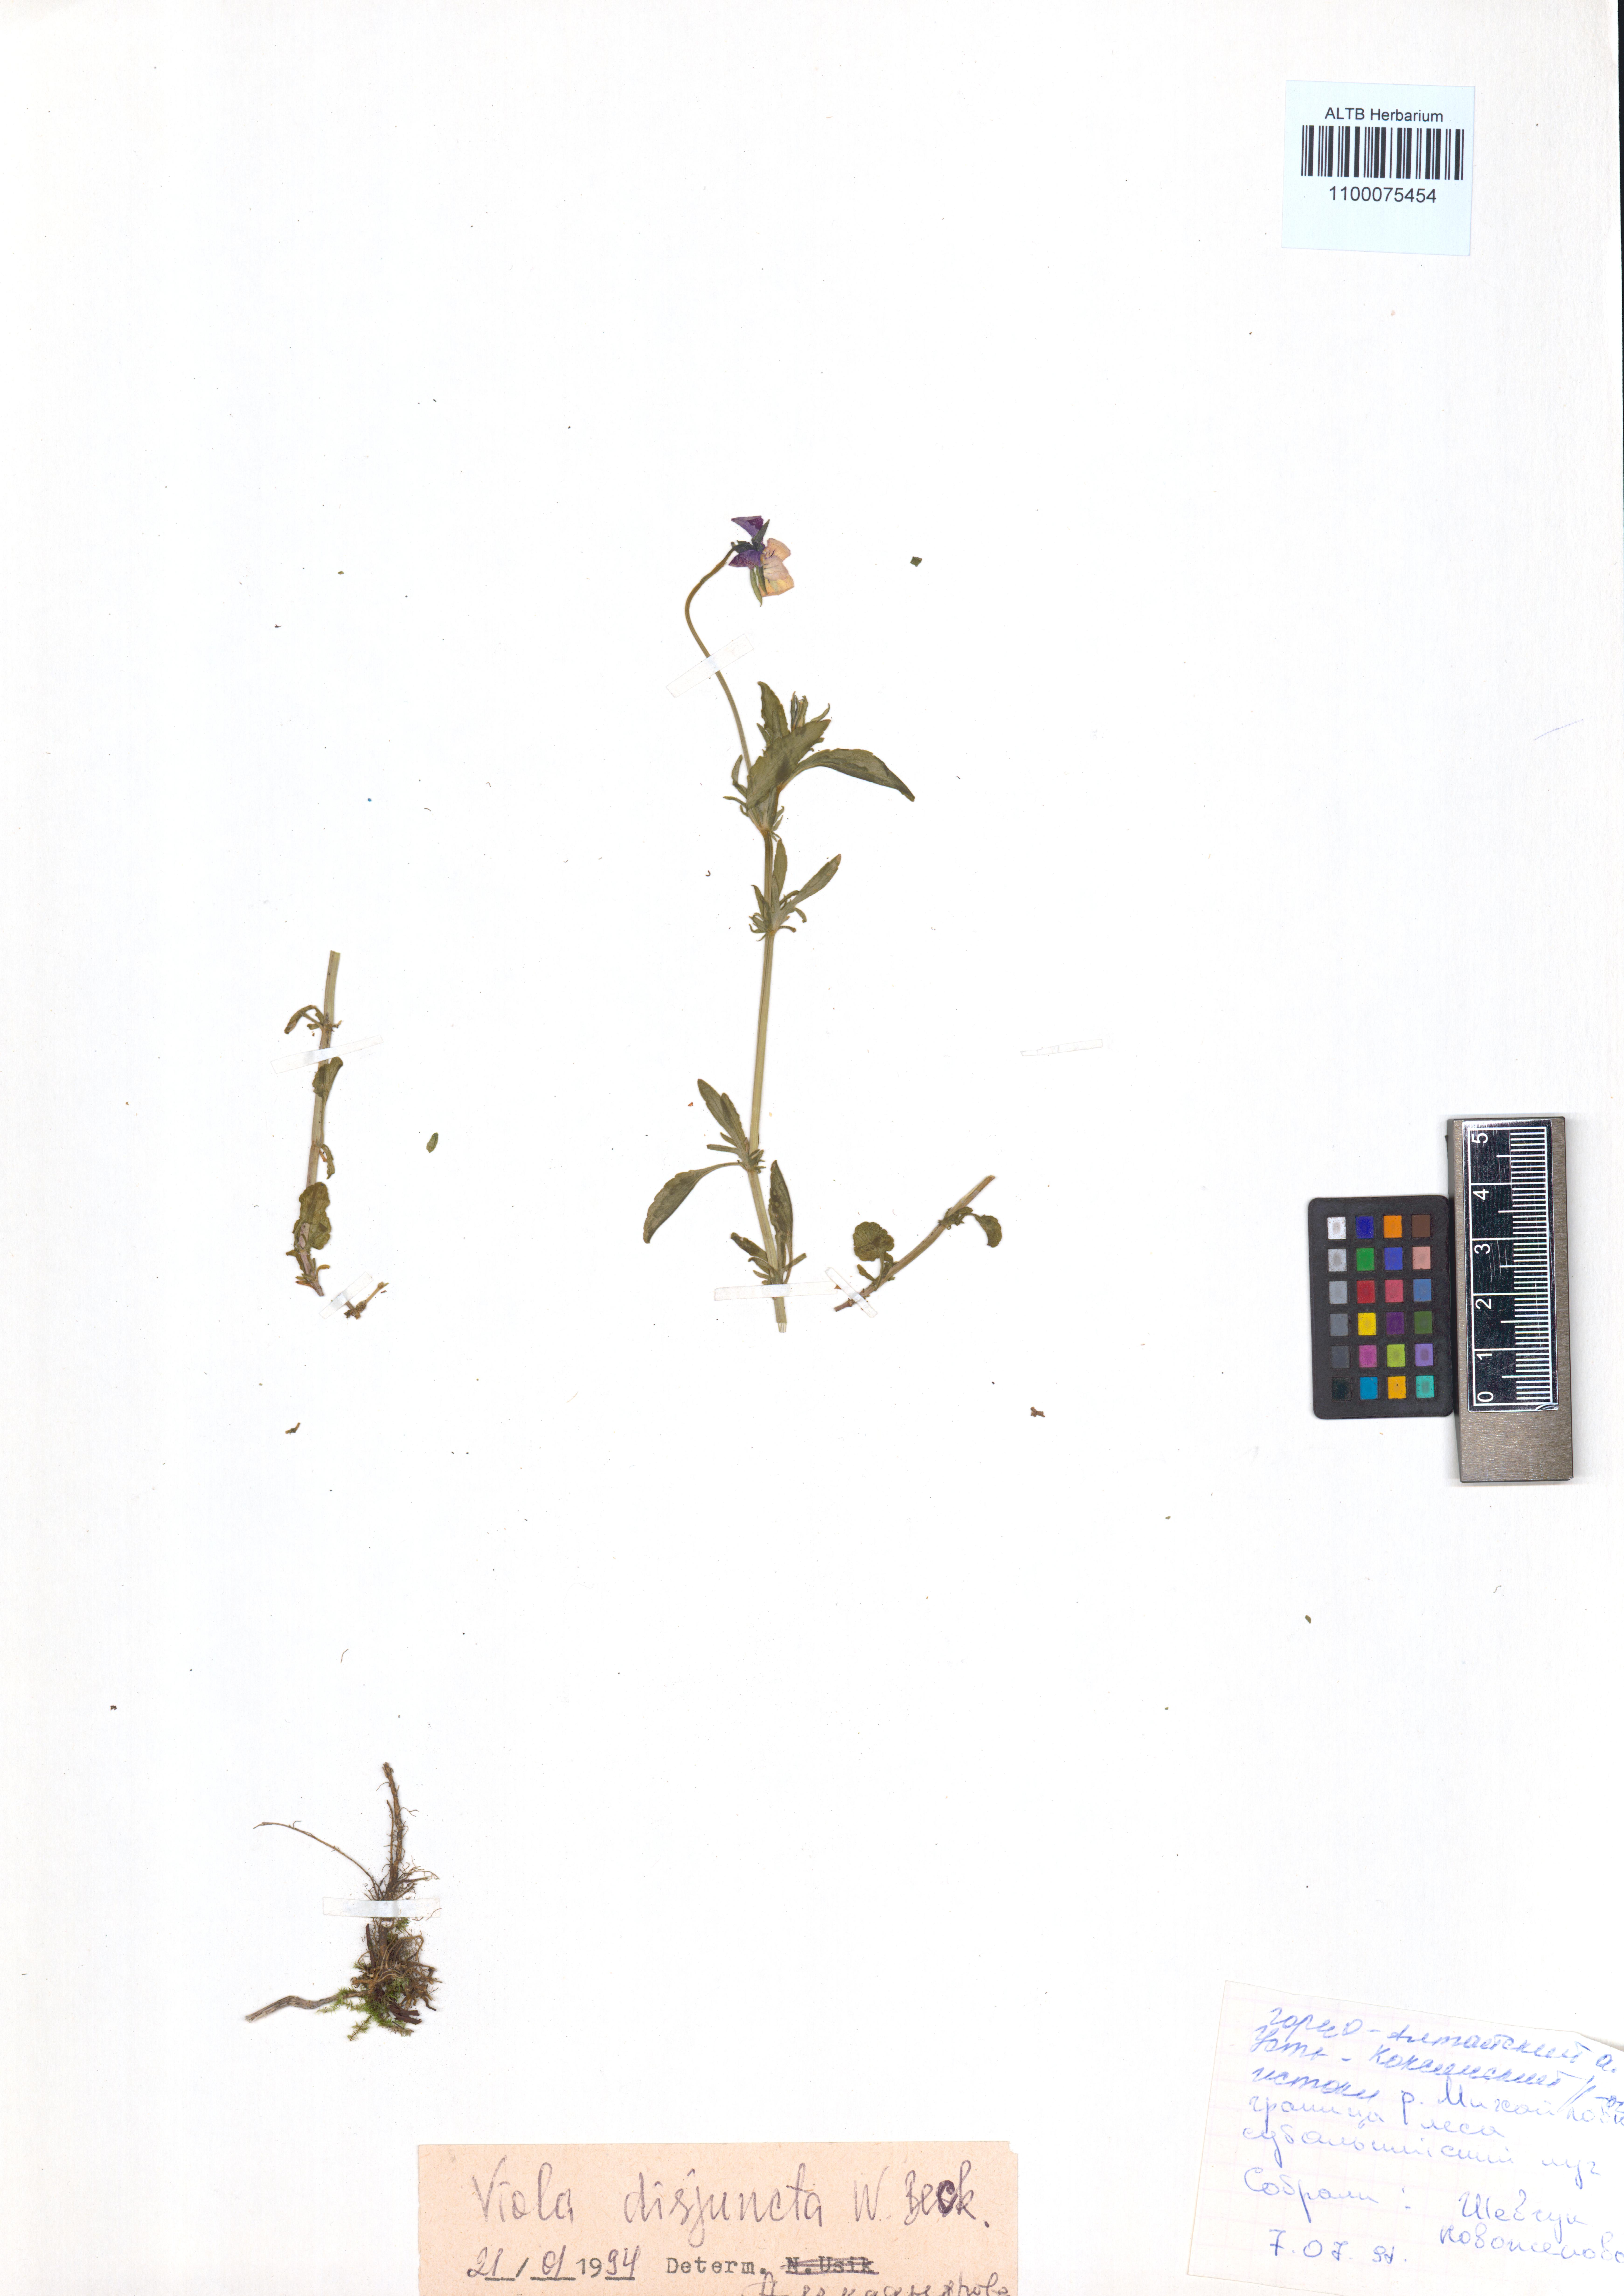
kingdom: Plantae
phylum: Tracheophyta
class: Magnoliopsida
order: Malpighiales
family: Violaceae
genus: Viola
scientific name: Viola tricolor
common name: Pansy
